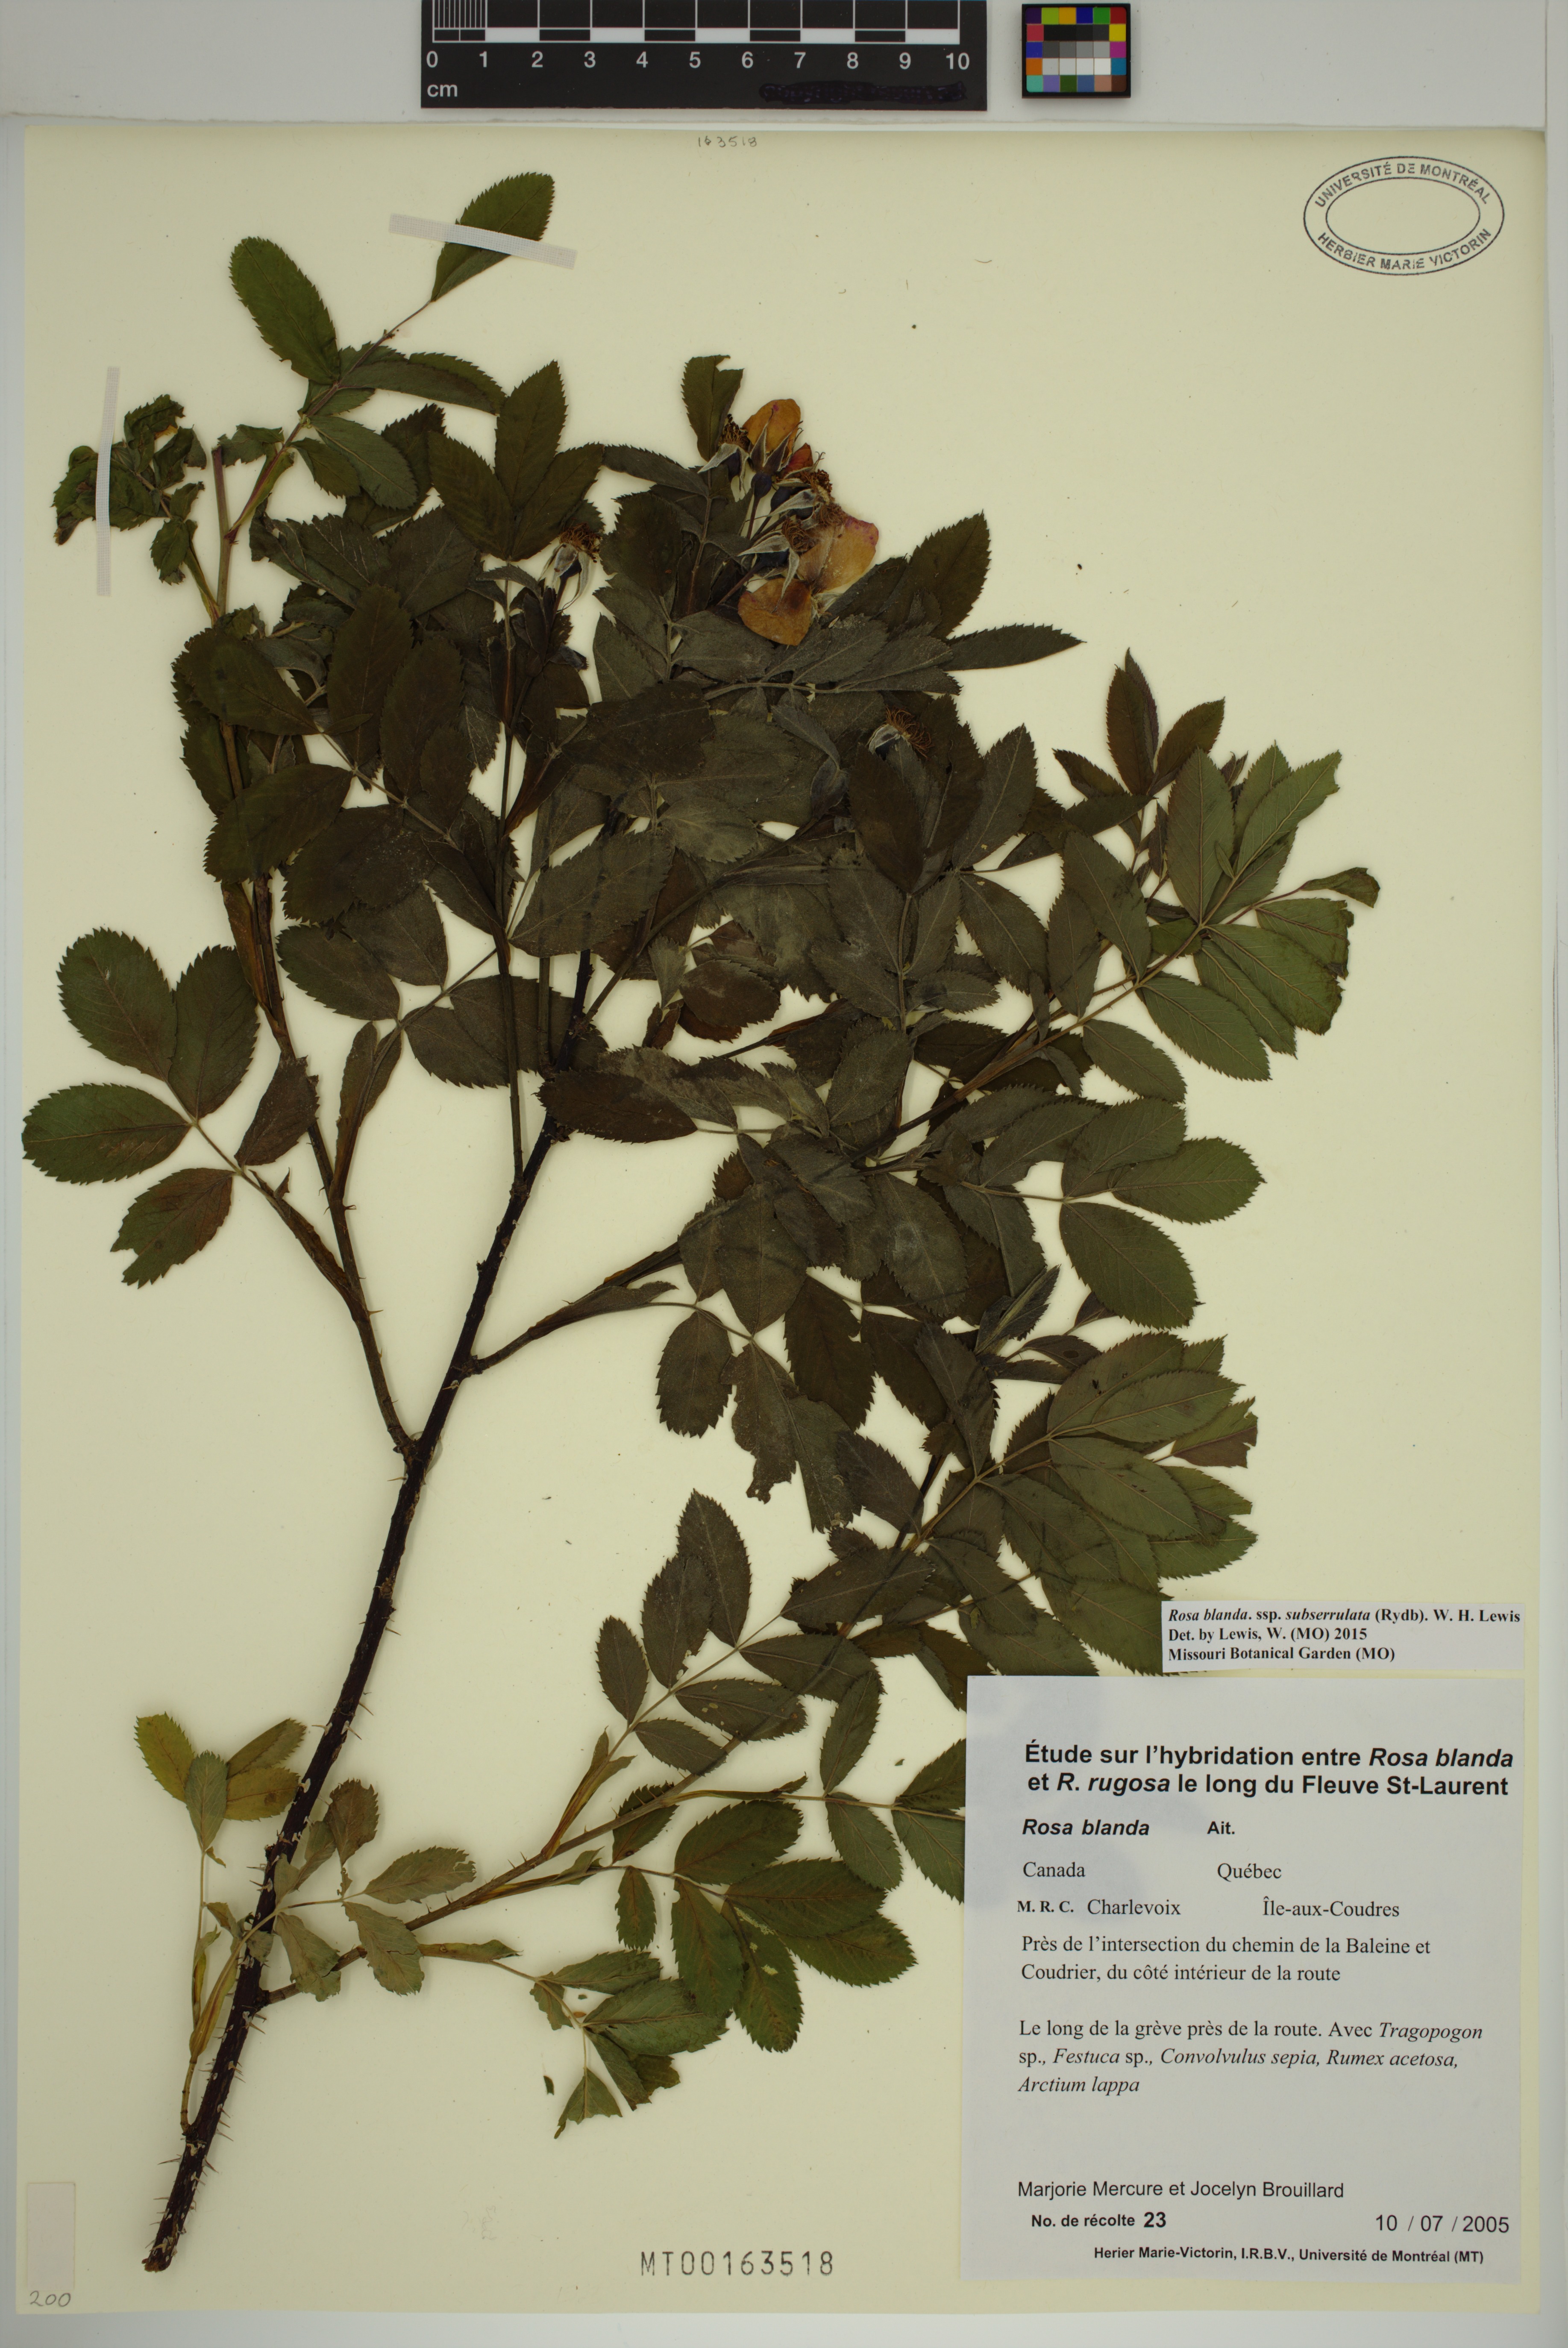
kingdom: Plantae
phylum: Tracheophyta
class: Magnoliopsida
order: Rosales
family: Rosaceae
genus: Rosa
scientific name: Rosa blanda
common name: Smooth rose
